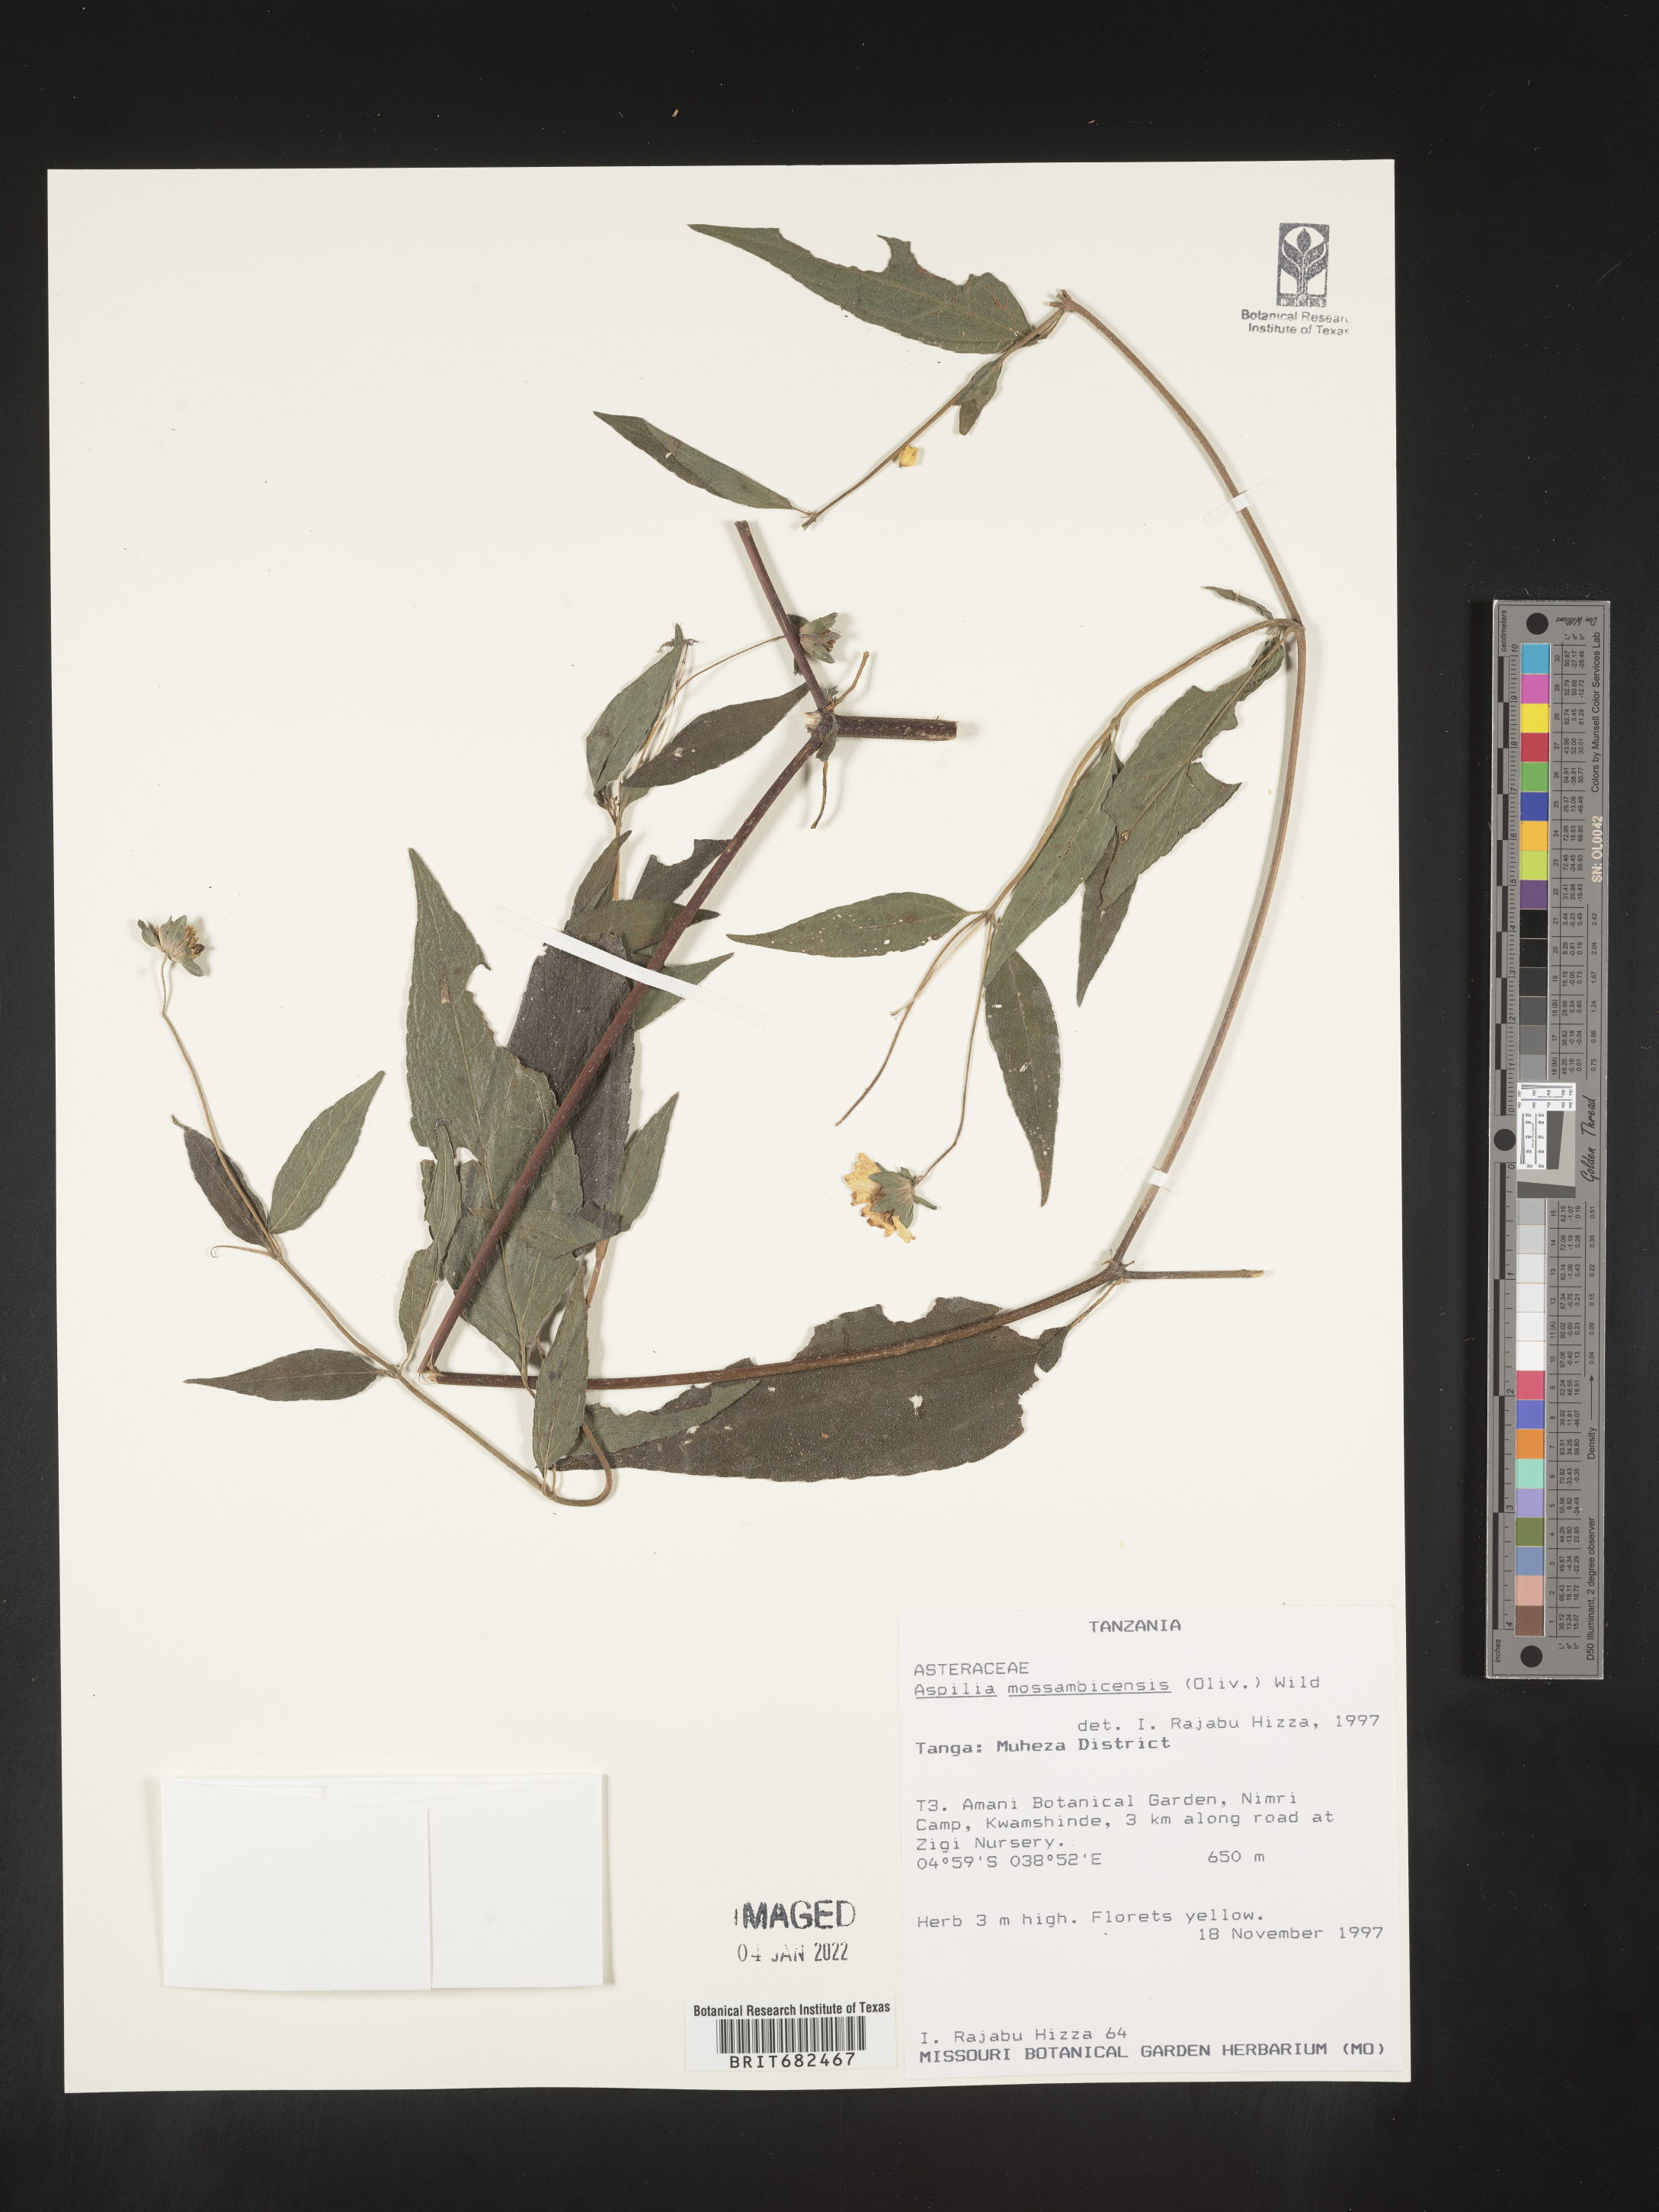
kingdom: Plantae
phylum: Tracheophyta
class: Magnoliopsida
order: Asterales
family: Asteraceae
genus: Aspilia
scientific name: Aspilia
